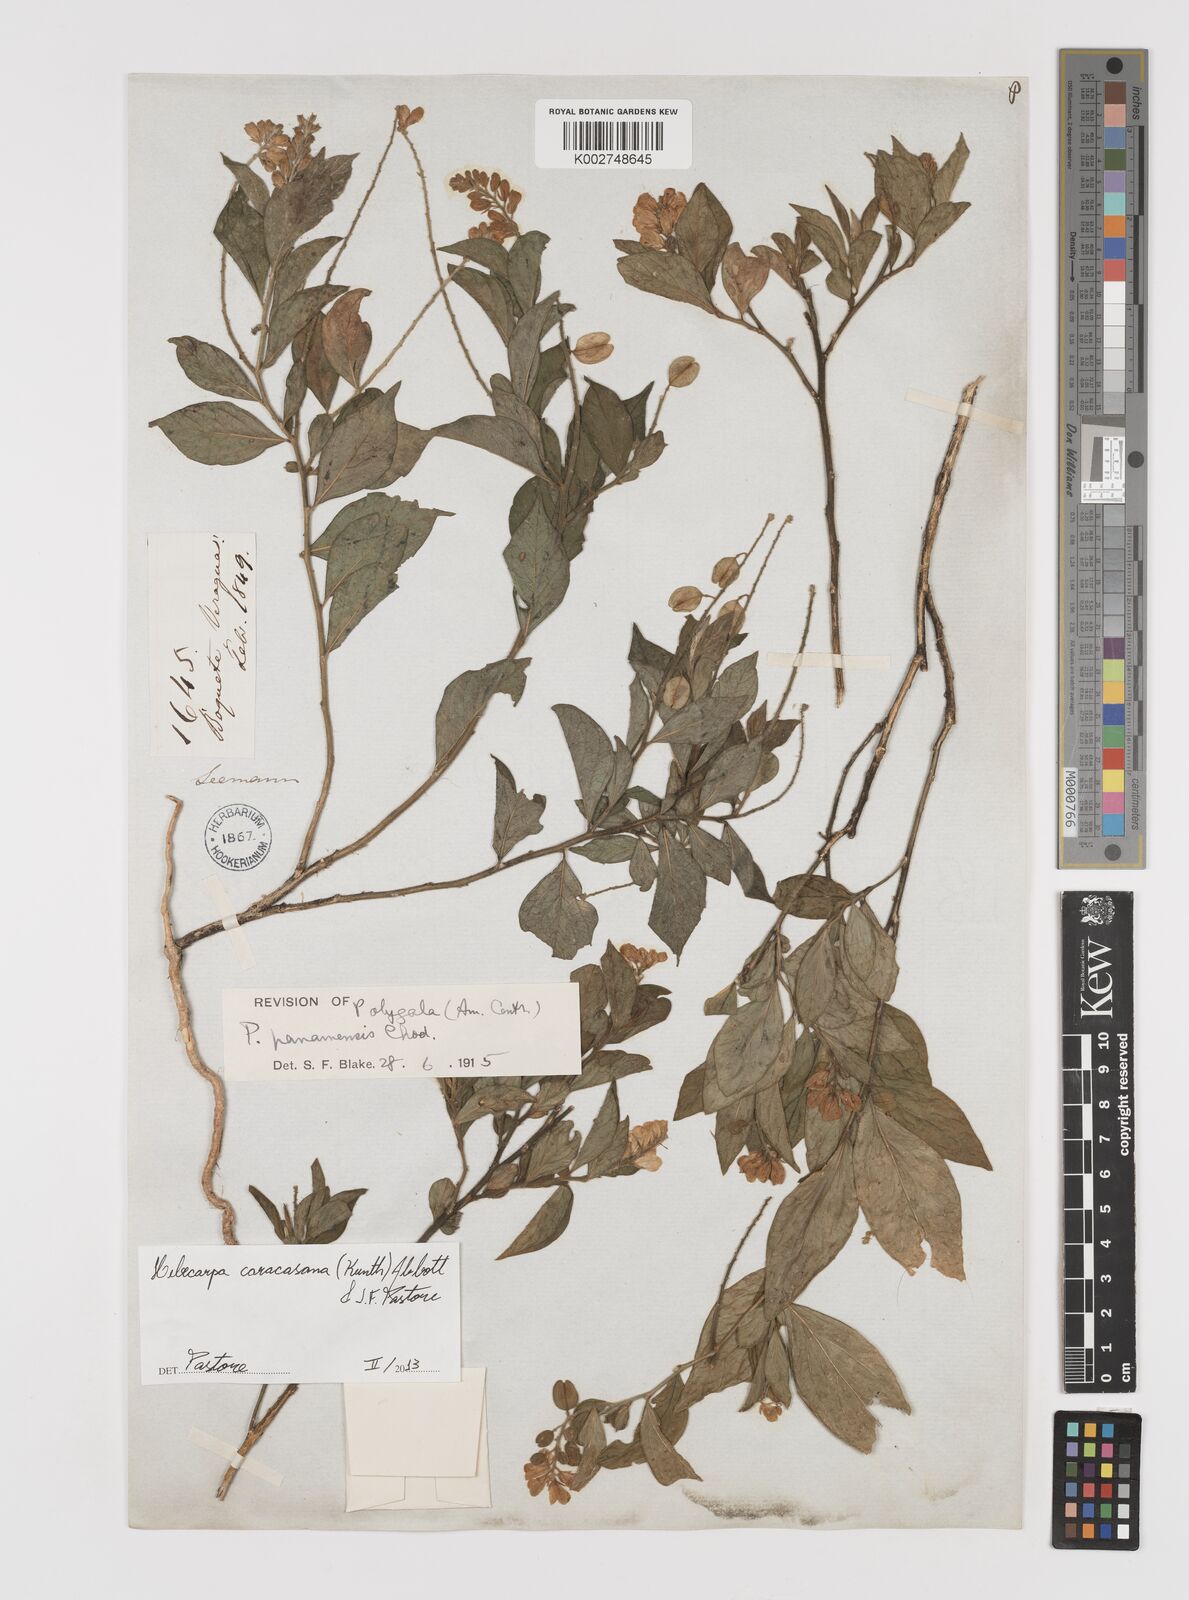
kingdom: Plantae
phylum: Tracheophyta
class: Magnoliopsida
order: Fabales
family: Polygalaceae
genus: Hebecarpa
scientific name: Hebecarpa caracasana
